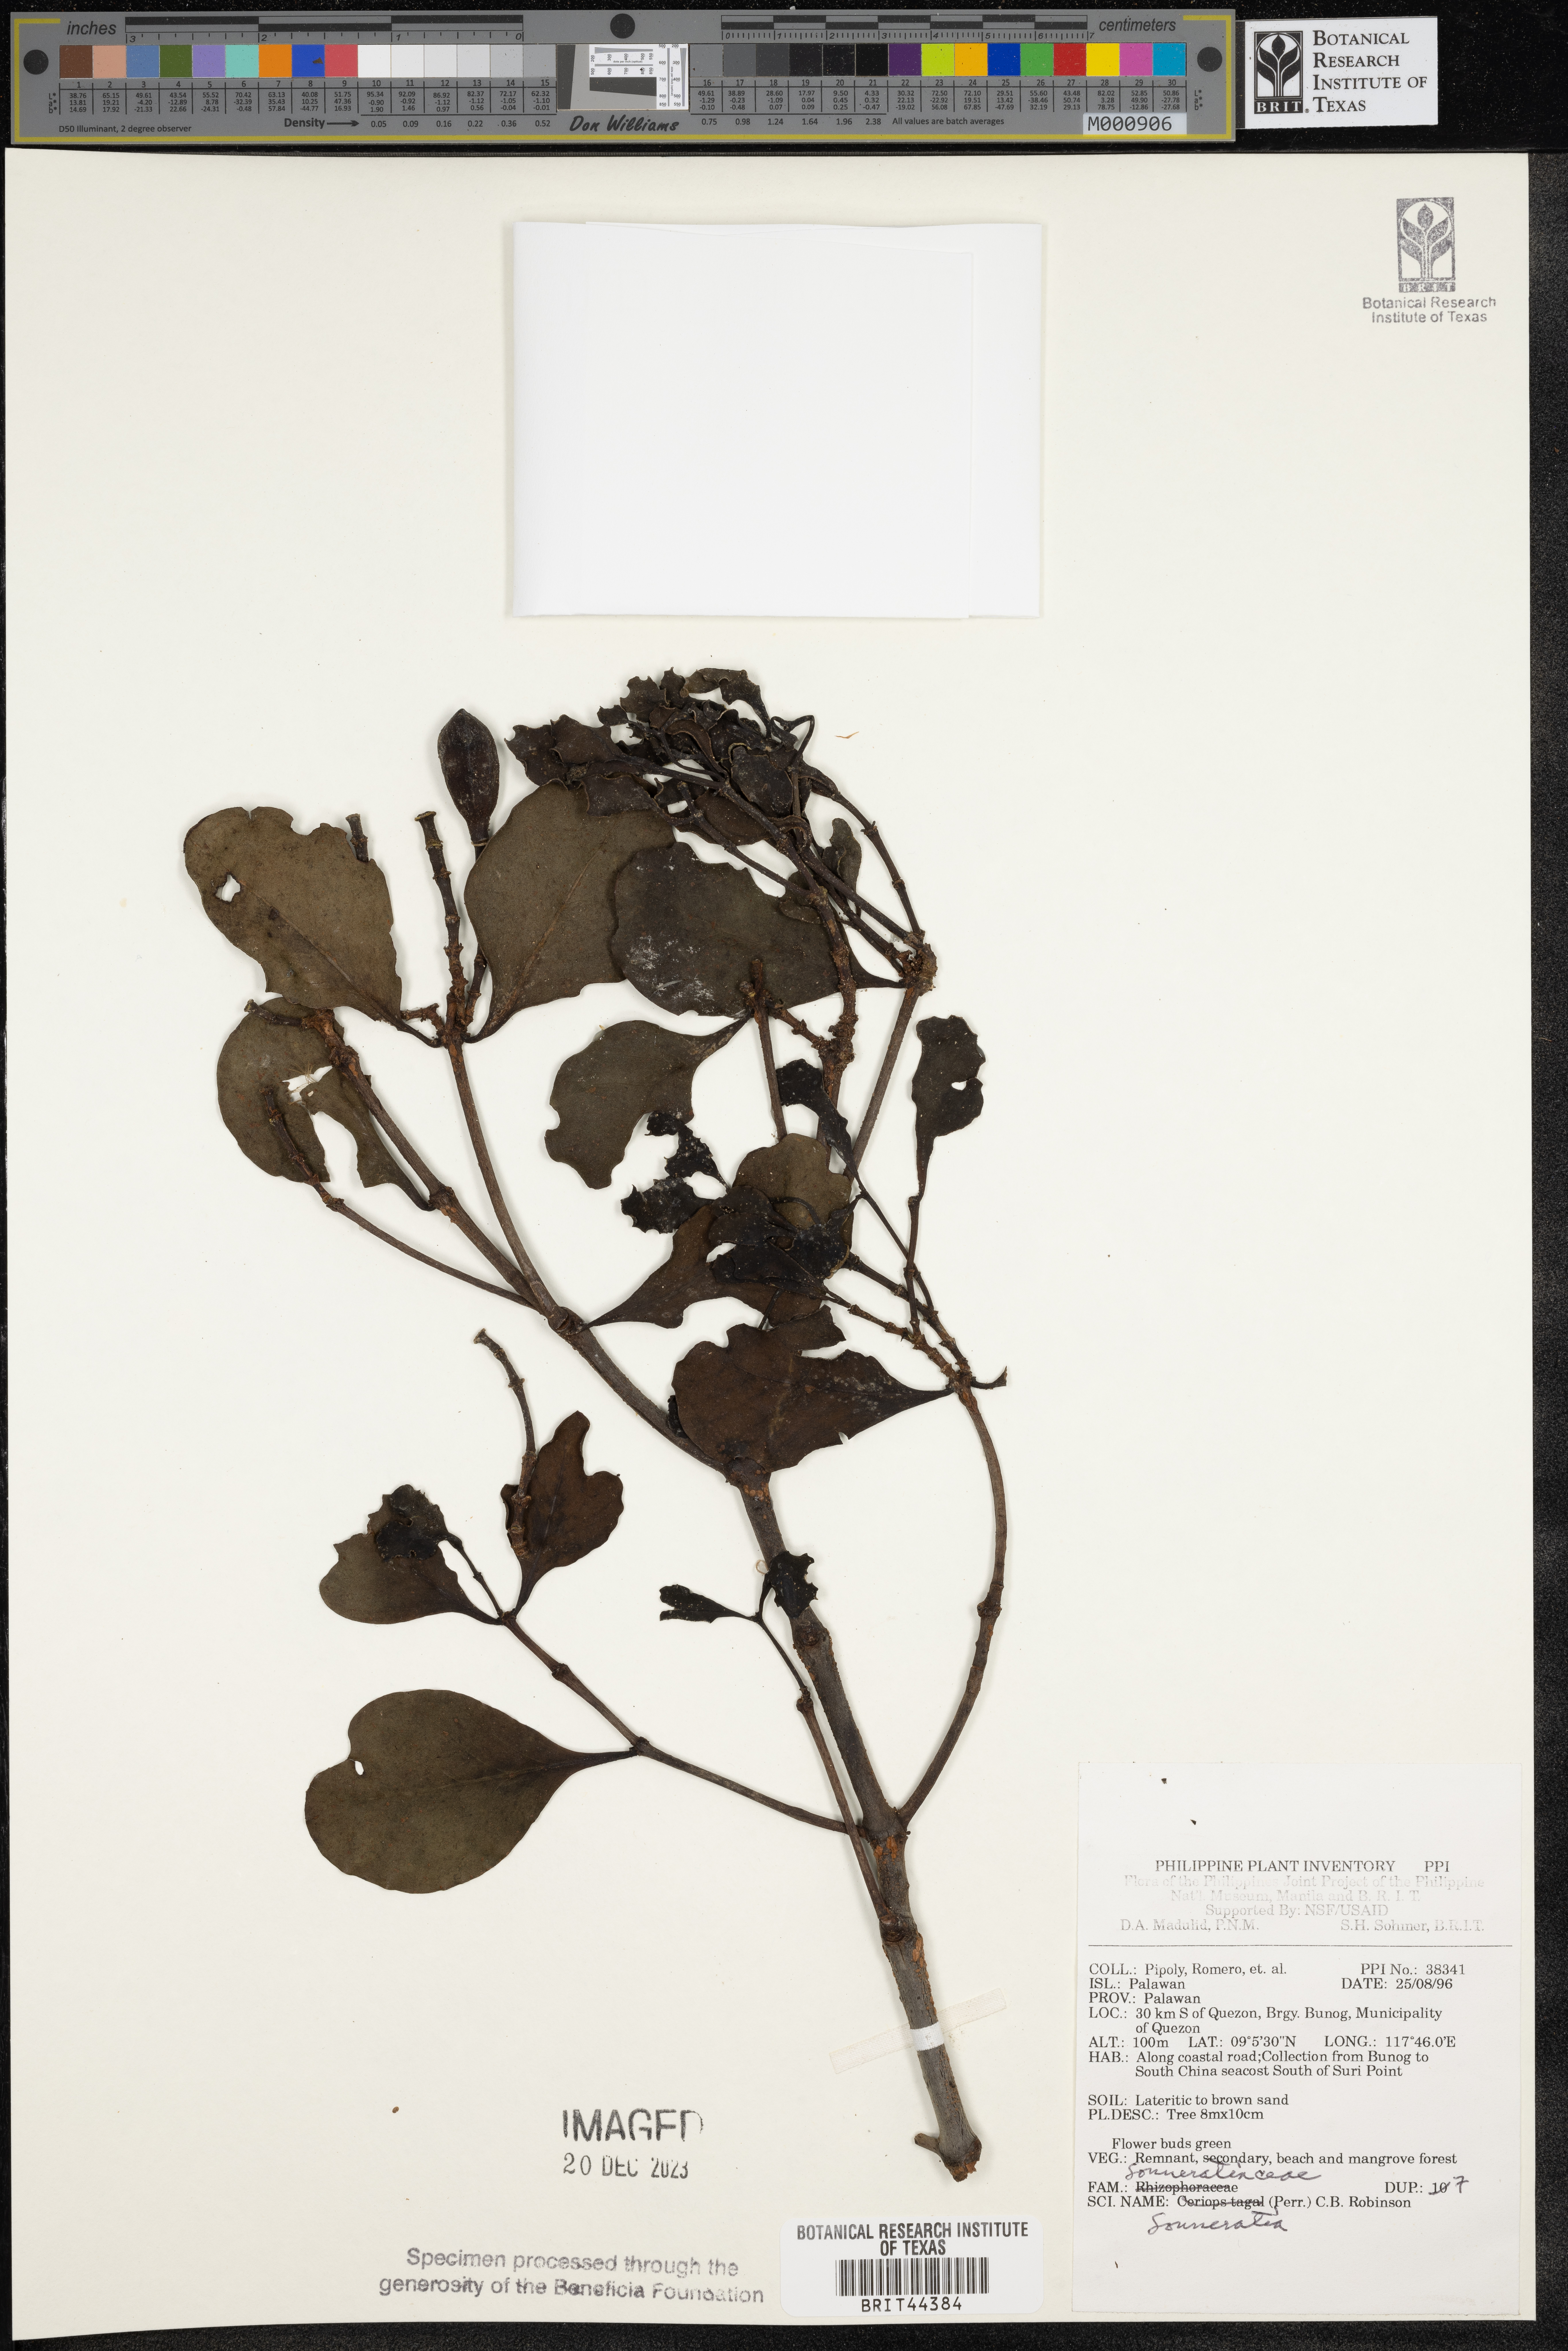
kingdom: Plantae
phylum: Tracheophyta
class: Magnoliopsida
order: Myrtales
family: Lythraceae
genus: Sonneratia
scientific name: Sonneratia
